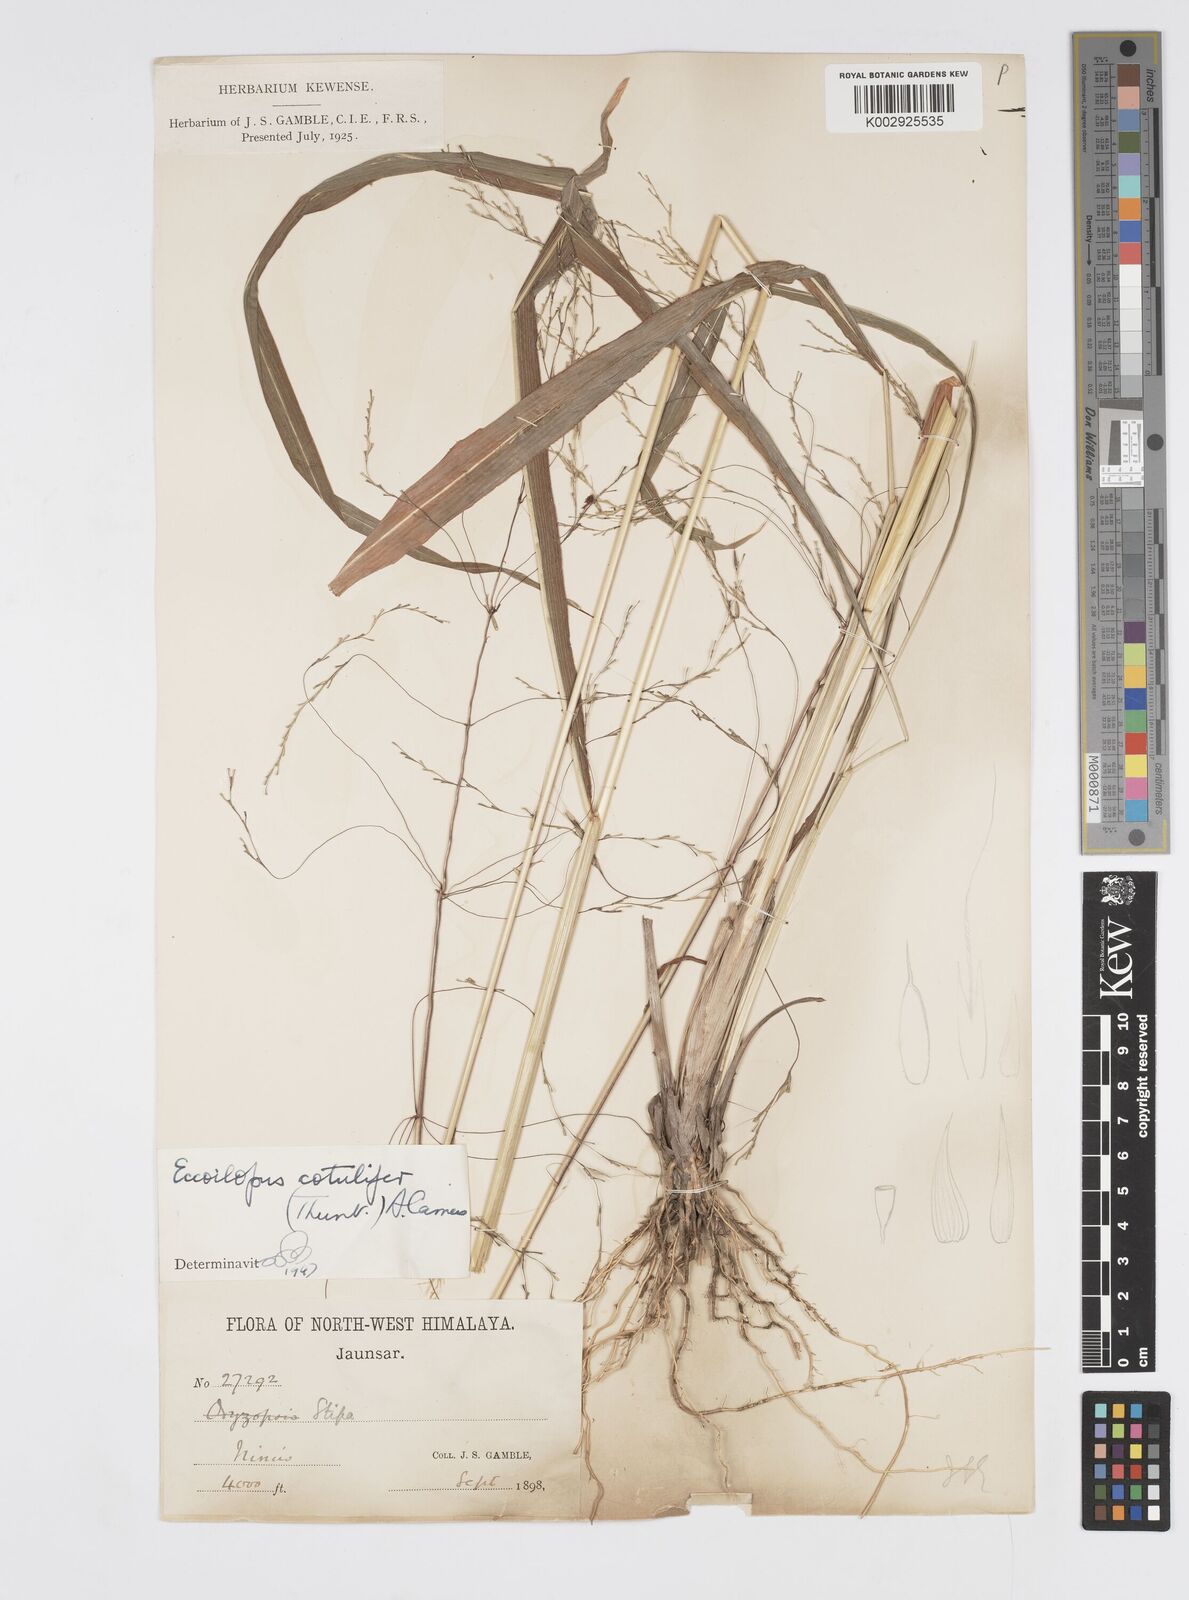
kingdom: Plantae
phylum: Tracheophyta
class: Liliopsida
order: Poales
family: Poaceae
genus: Spodiopogon
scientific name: Spodiopogon cotulifer
